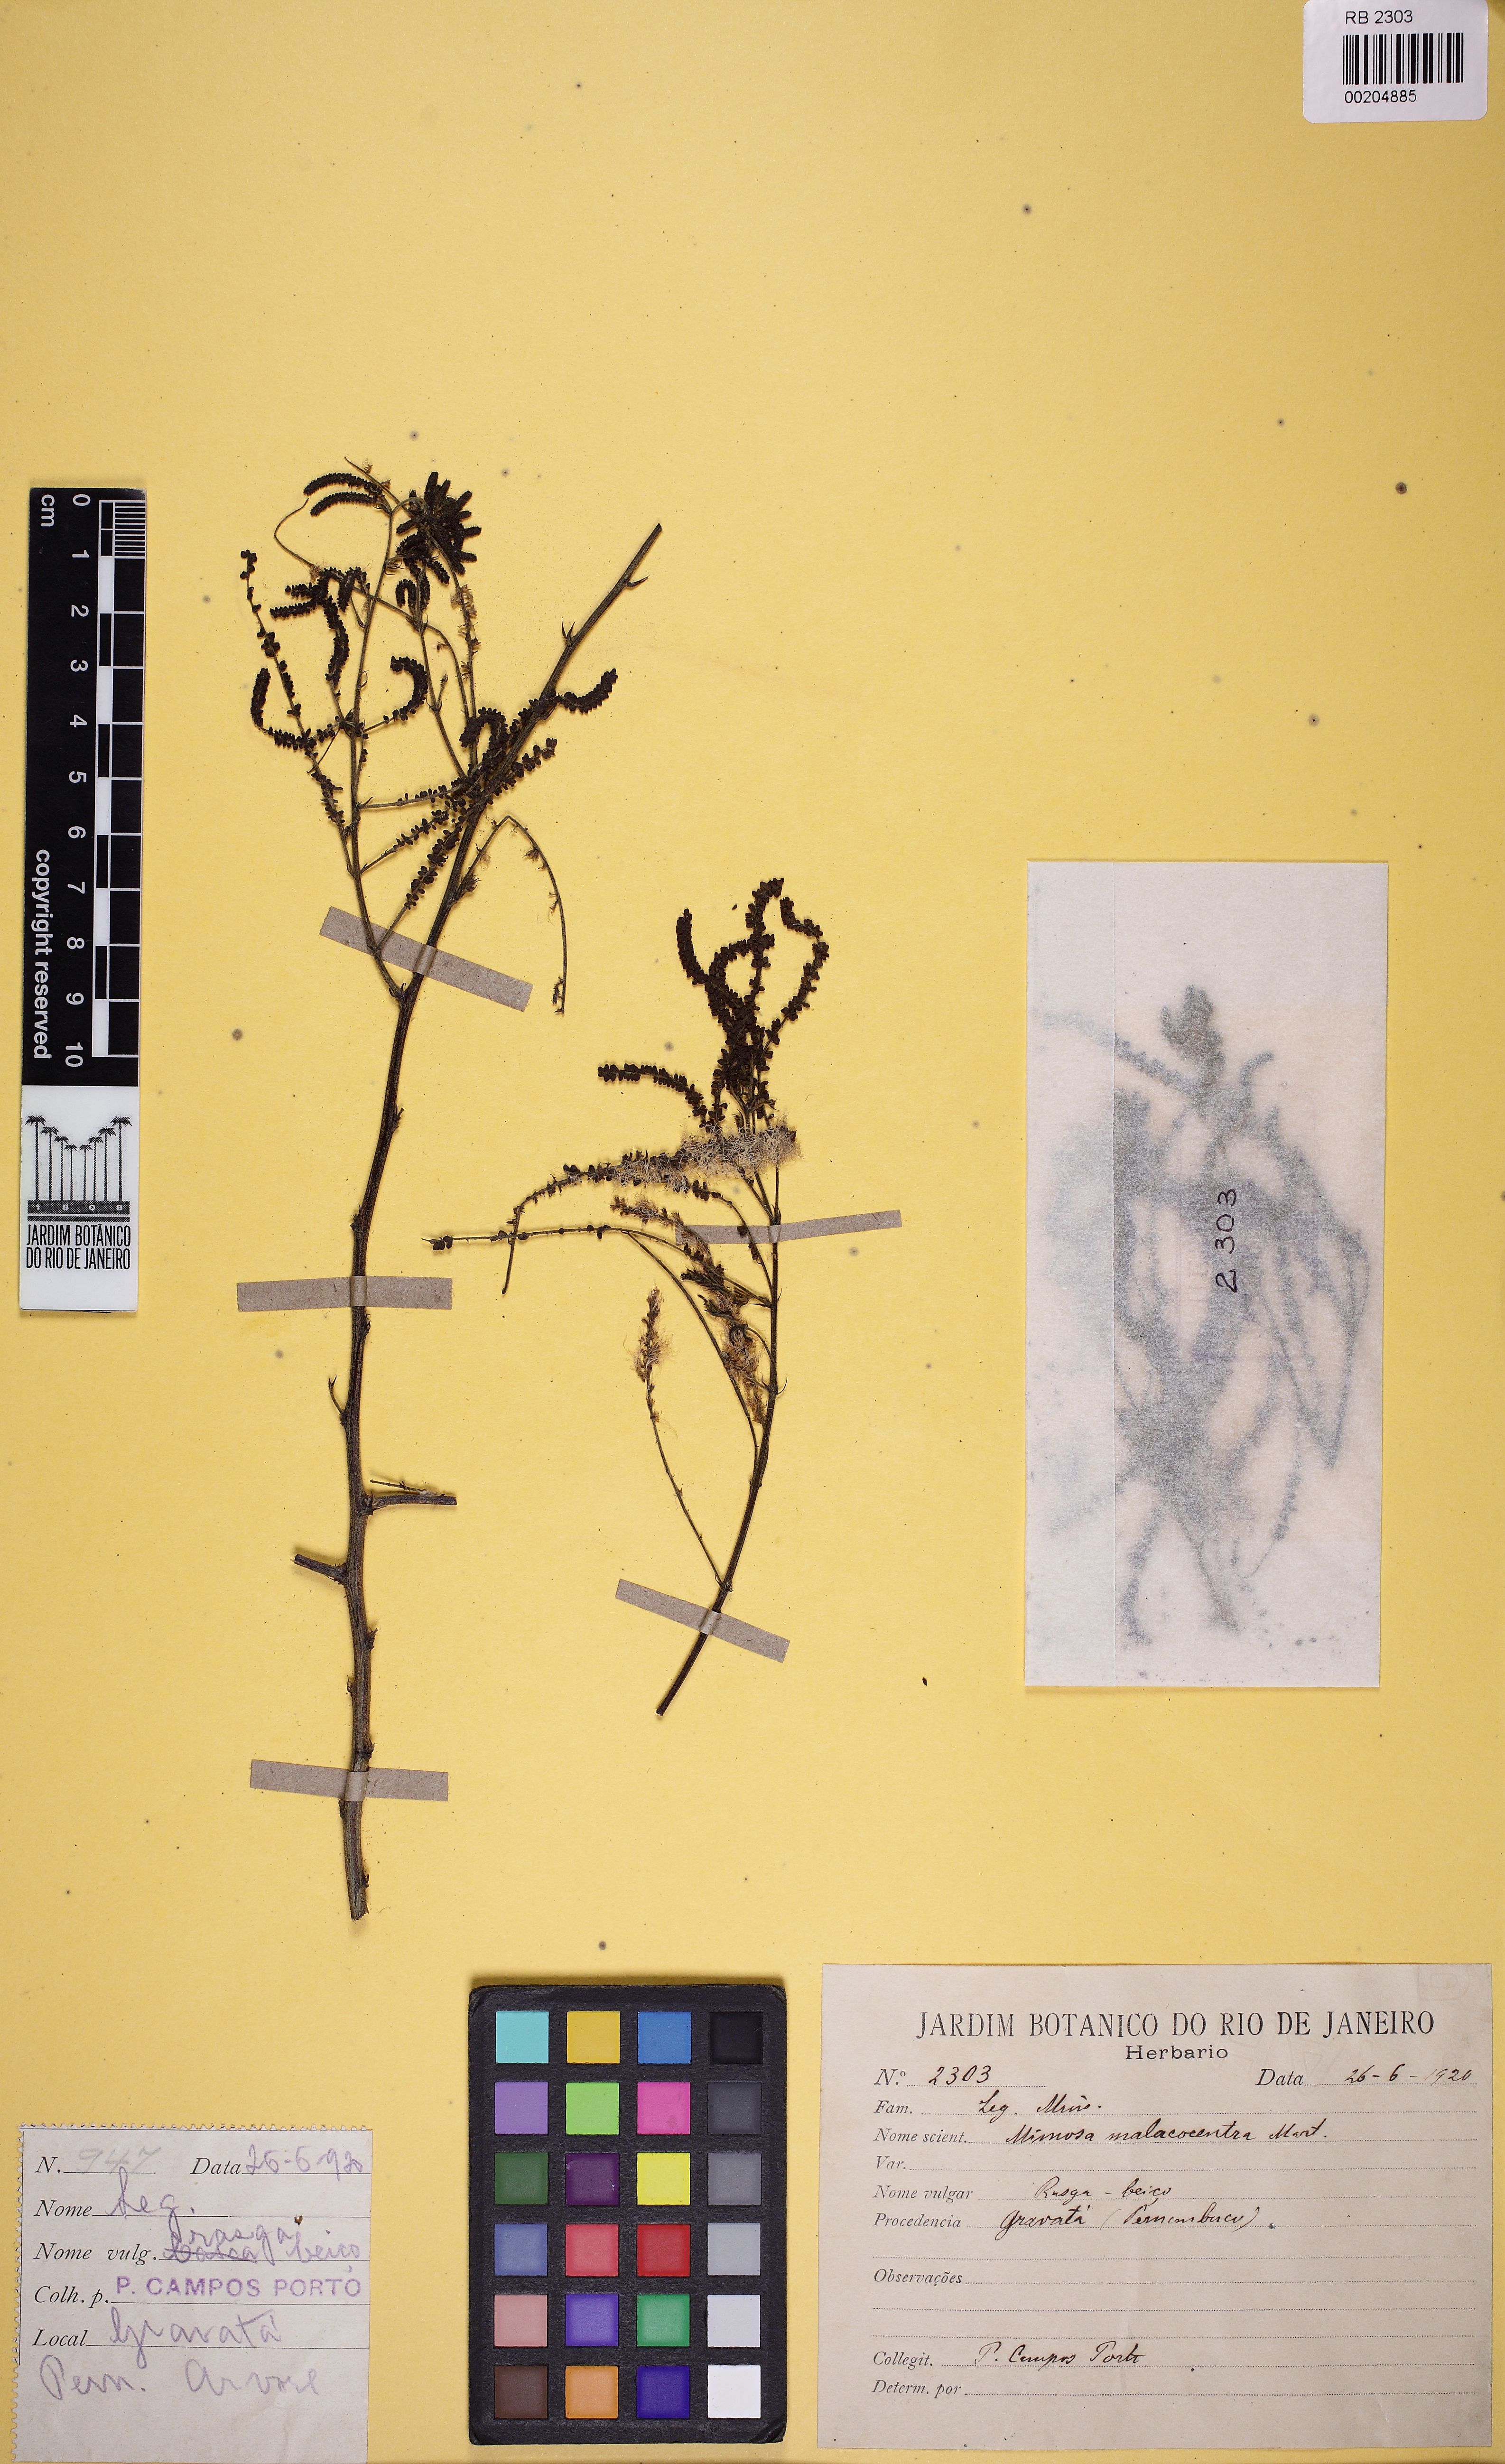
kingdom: Plantae
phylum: Tracheophyta
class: Magnoliopsida
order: Fabales
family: Fabaceae
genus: Mimosa
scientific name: Mimosa arenosa
